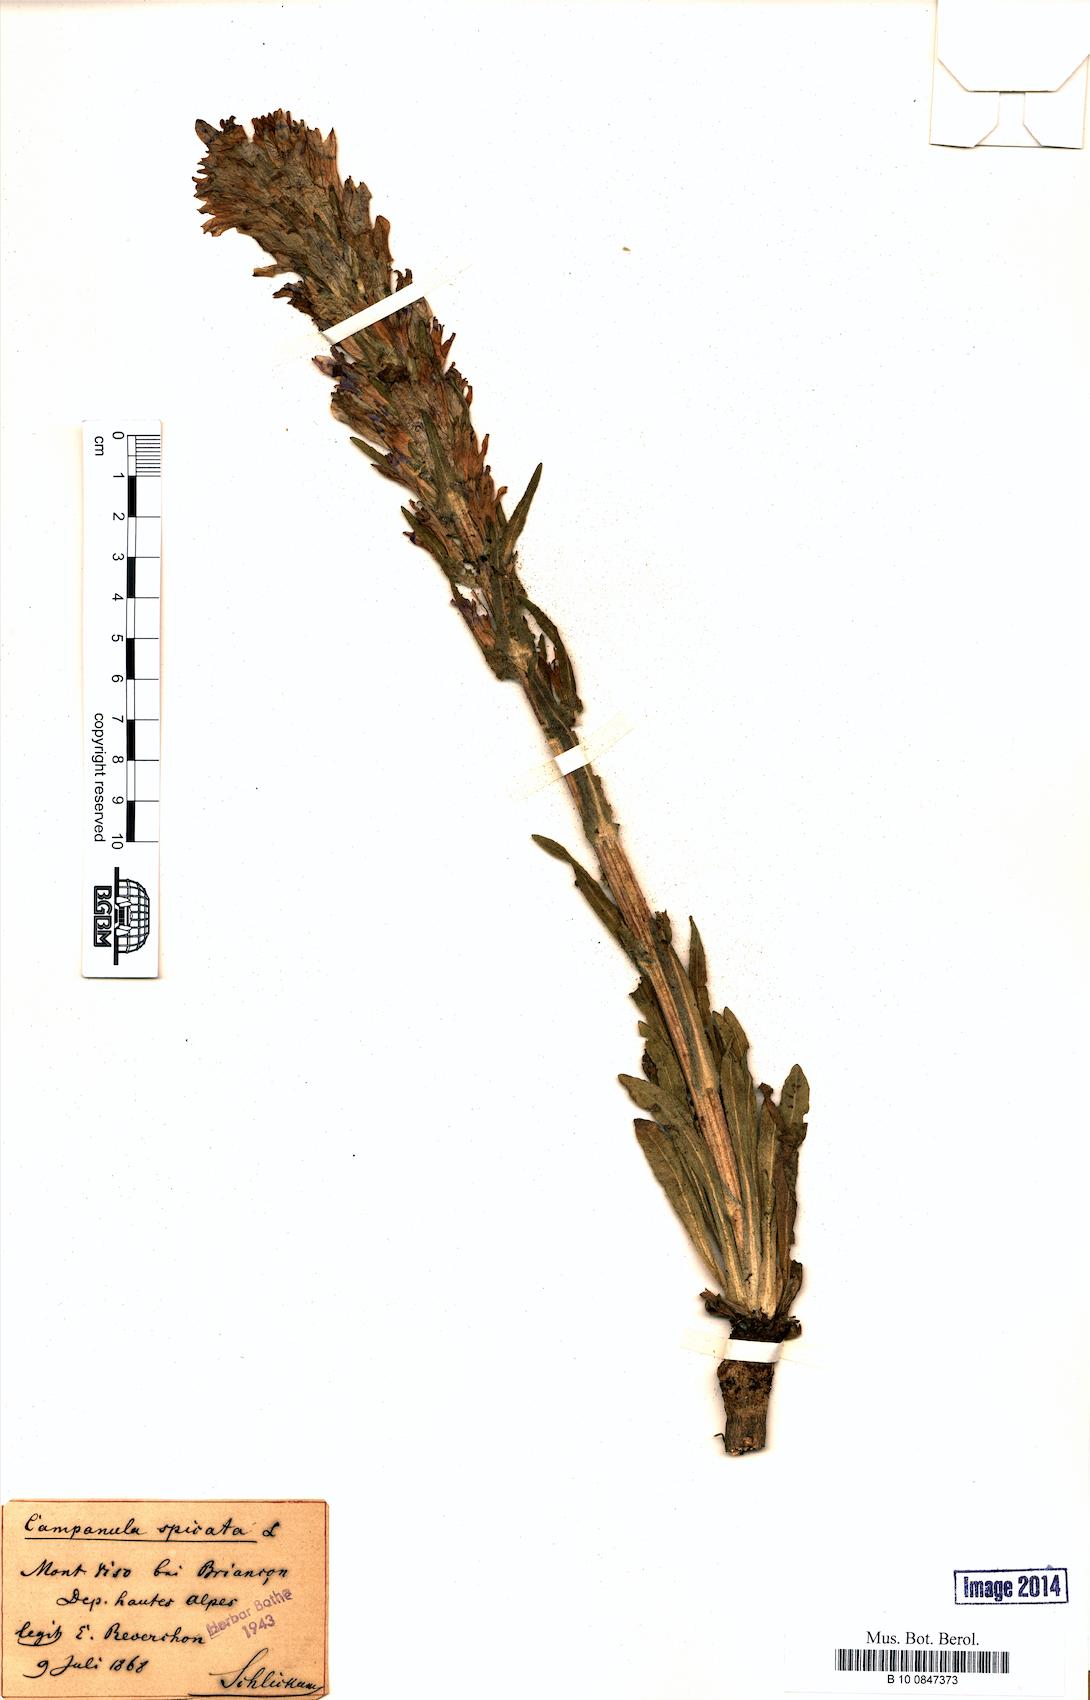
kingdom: Plantae
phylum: Tracheophyta
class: Magnoliopsida
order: Asterales
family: Campanulaceae
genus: Campanula
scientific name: Campanula spicata
